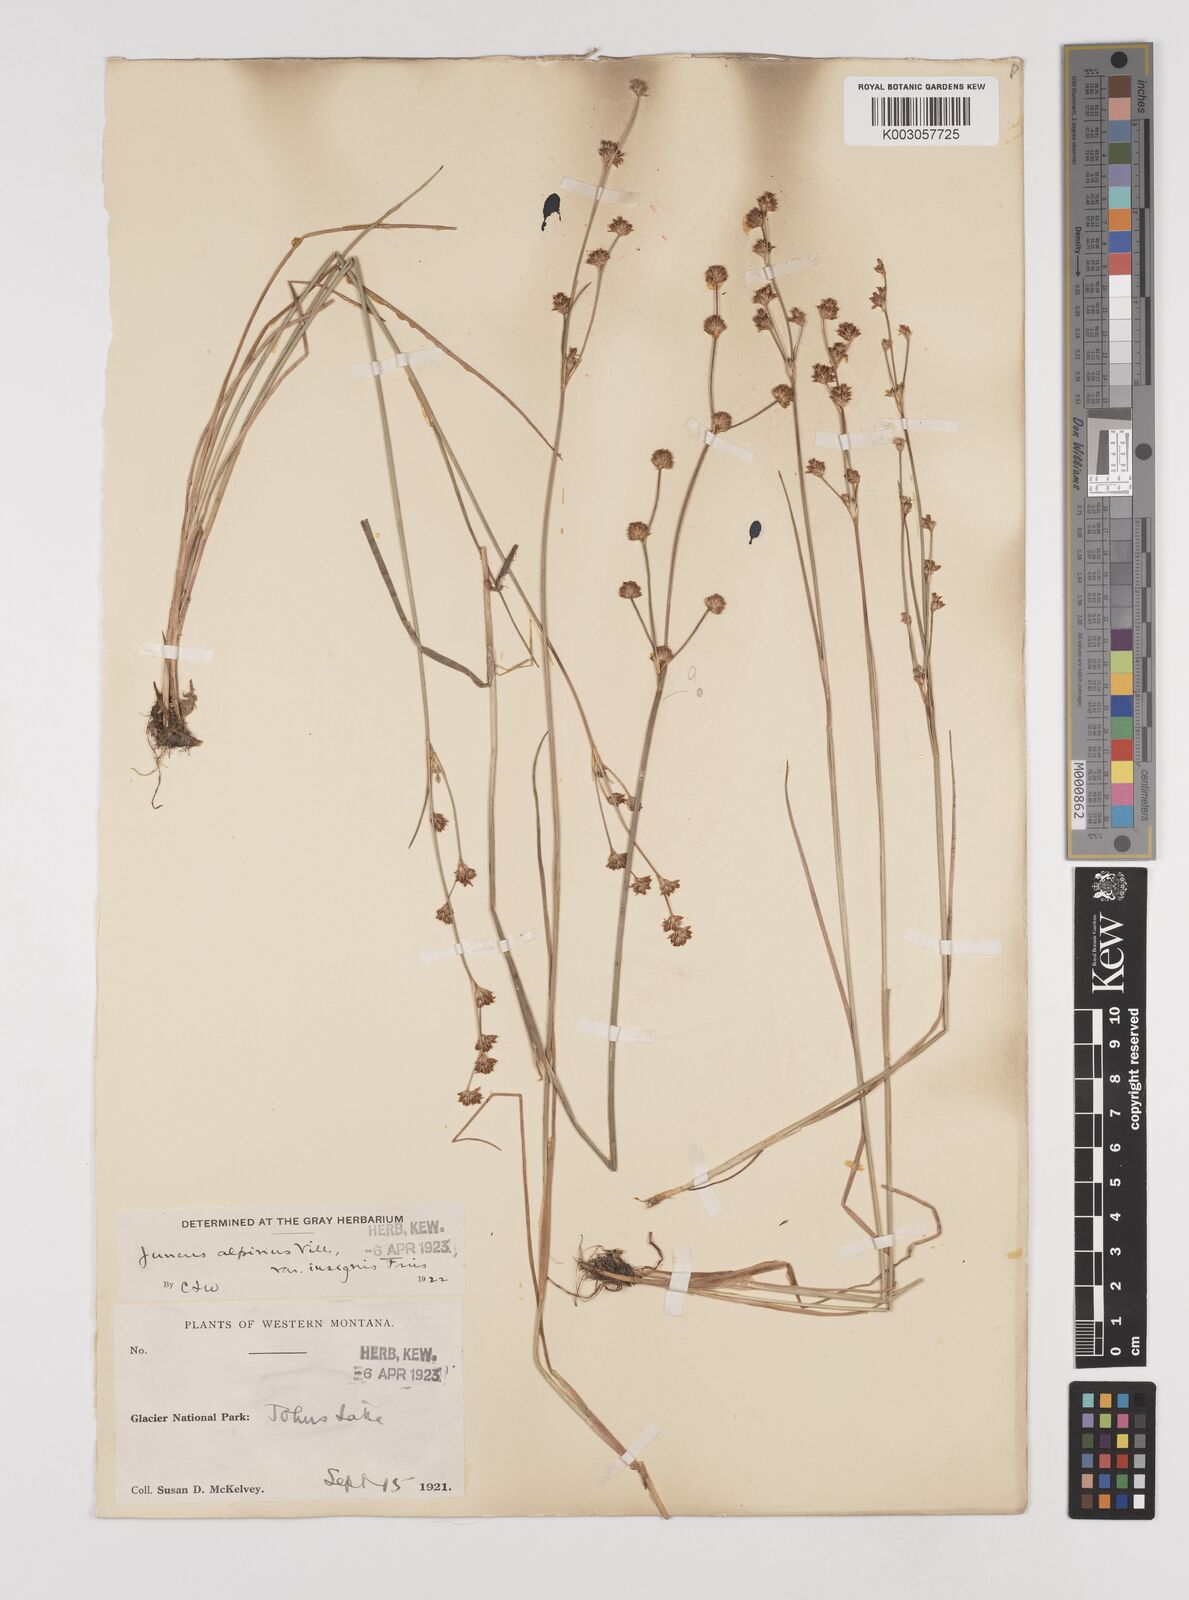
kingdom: Plantae
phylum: Tracheophyta
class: Liliopsida
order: Poales
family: Juncaceae
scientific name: Juncaceae
